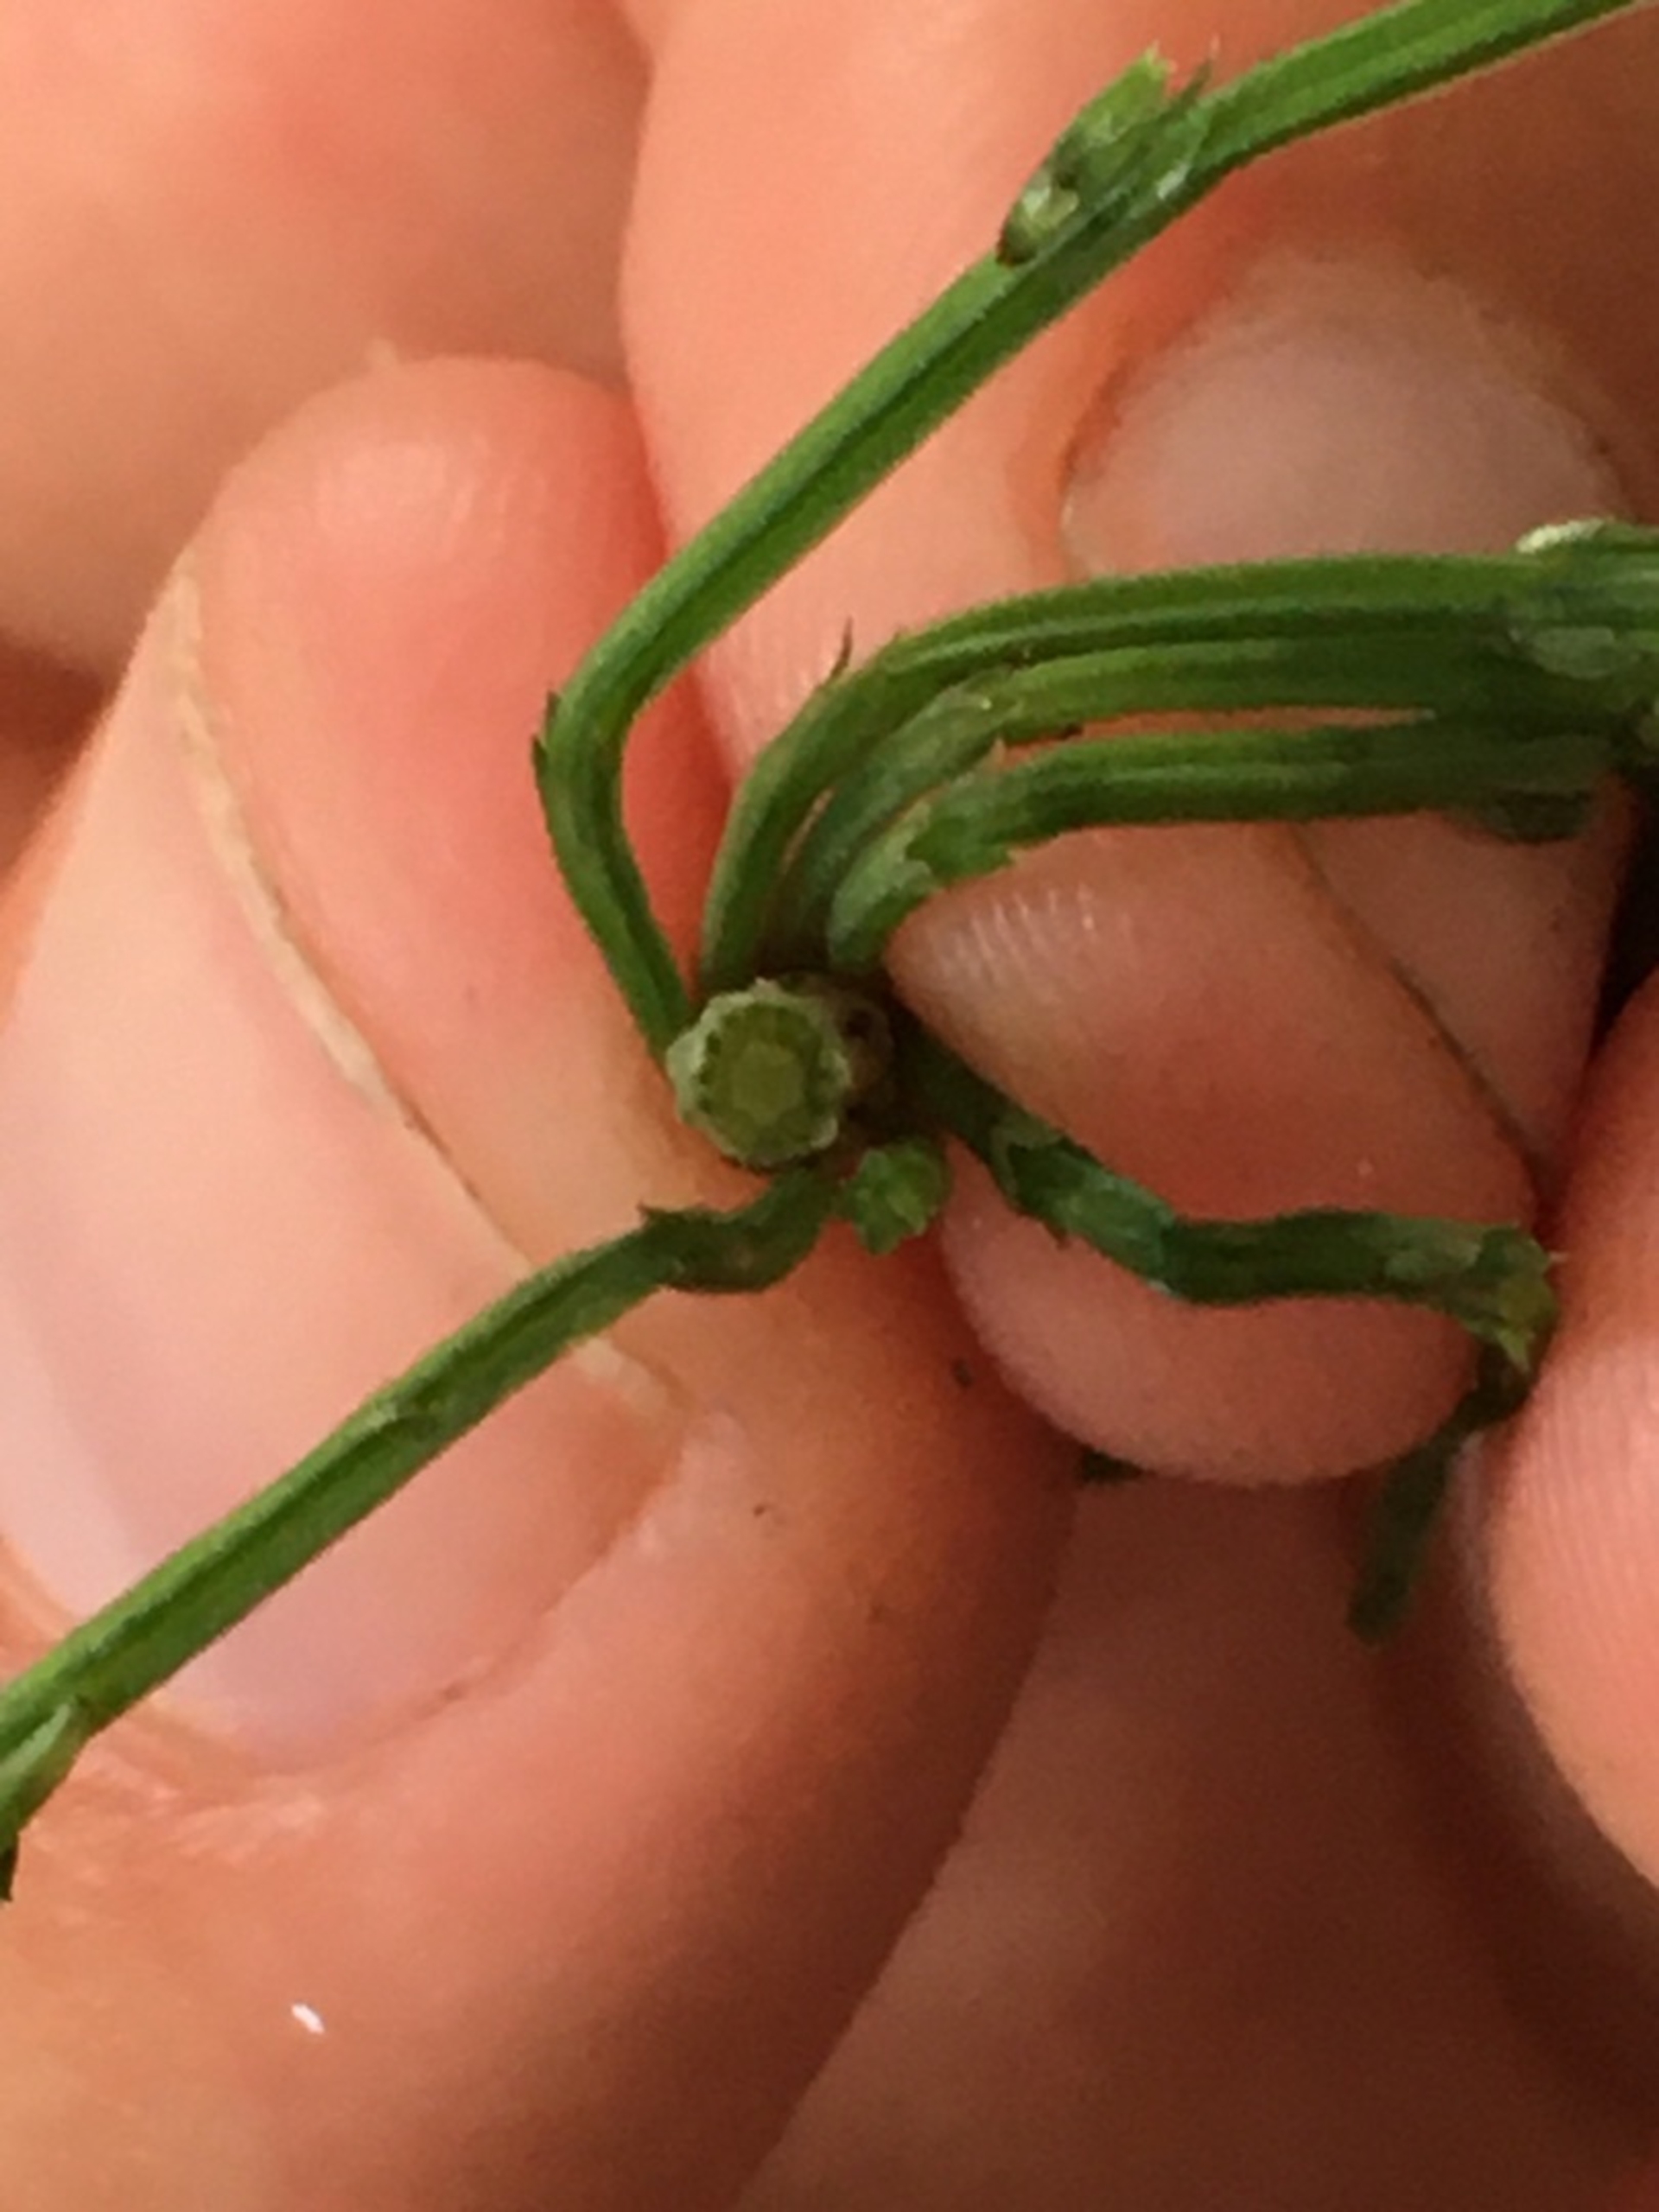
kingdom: Plantae
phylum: Tracheophyta
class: Polypodiopsida
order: Equisetales
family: Equisetaceae
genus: Equisetum
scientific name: Equisetum arvense
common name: Ager-padderok
